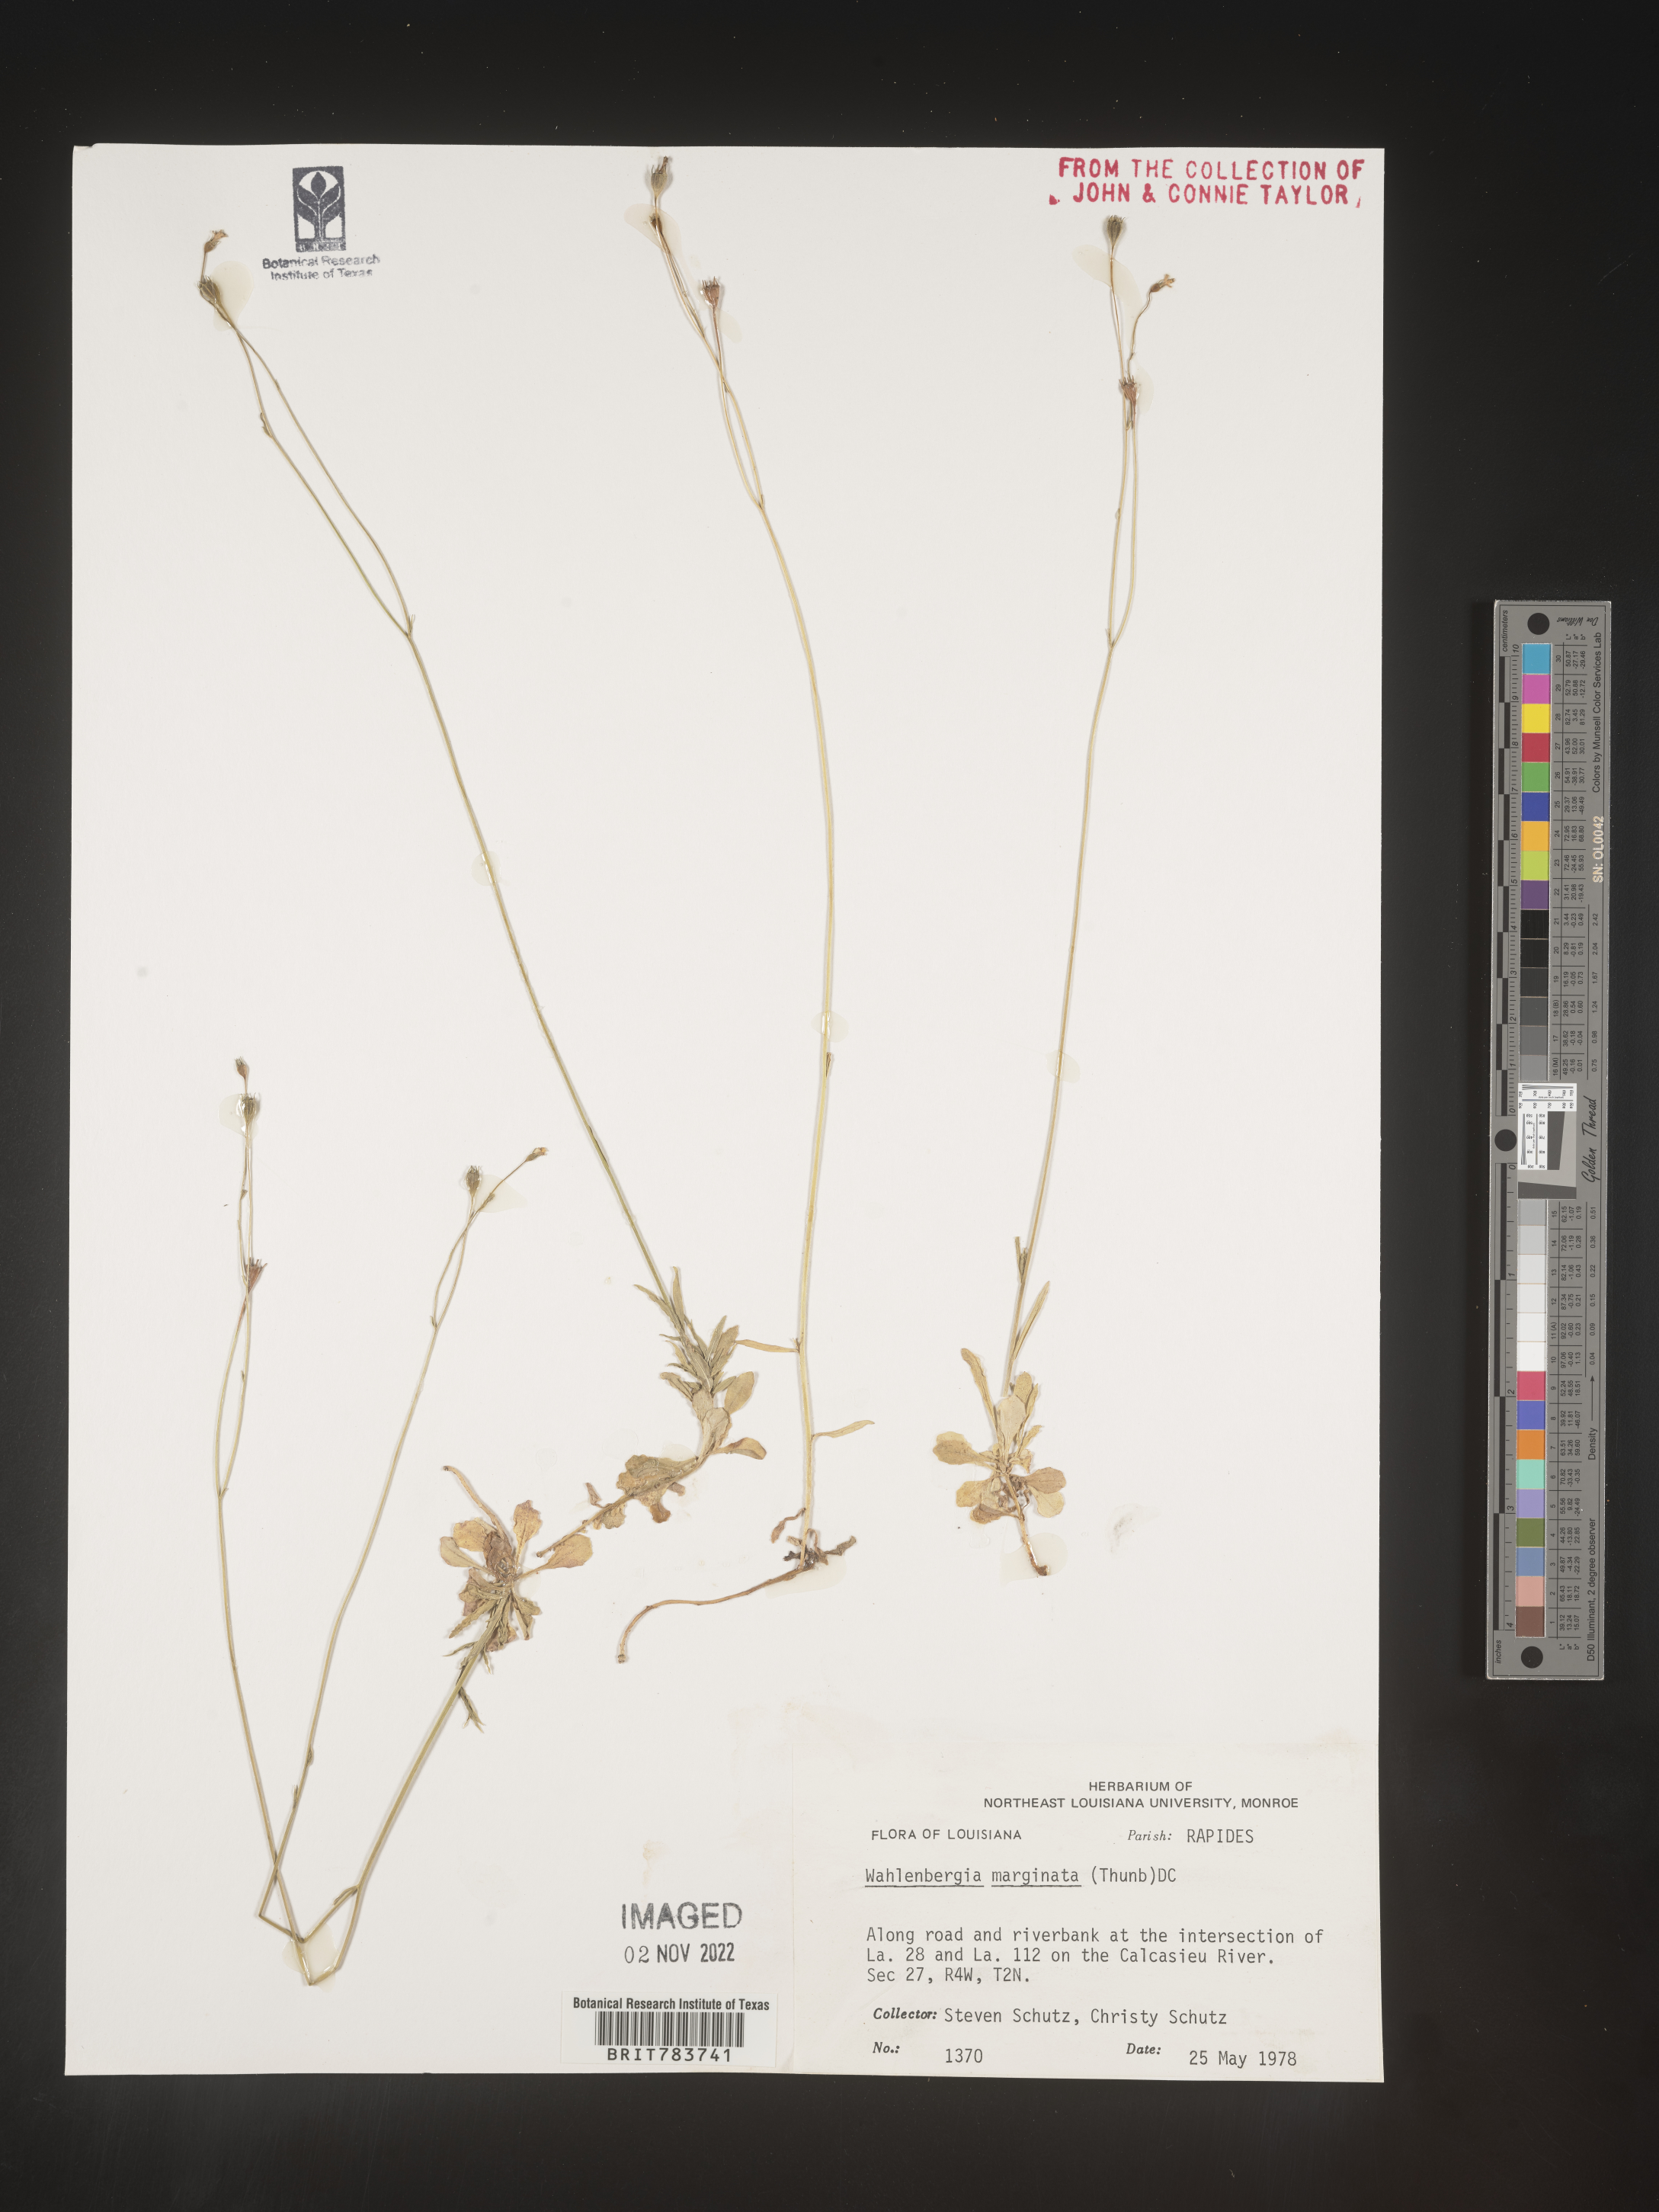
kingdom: Plantae
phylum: Tracheophyta
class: Magnoliopsida
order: Asterales
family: Campanulaceae
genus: Wahlenbergia
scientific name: Wahlenbergia marginata
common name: Southern rockbell
